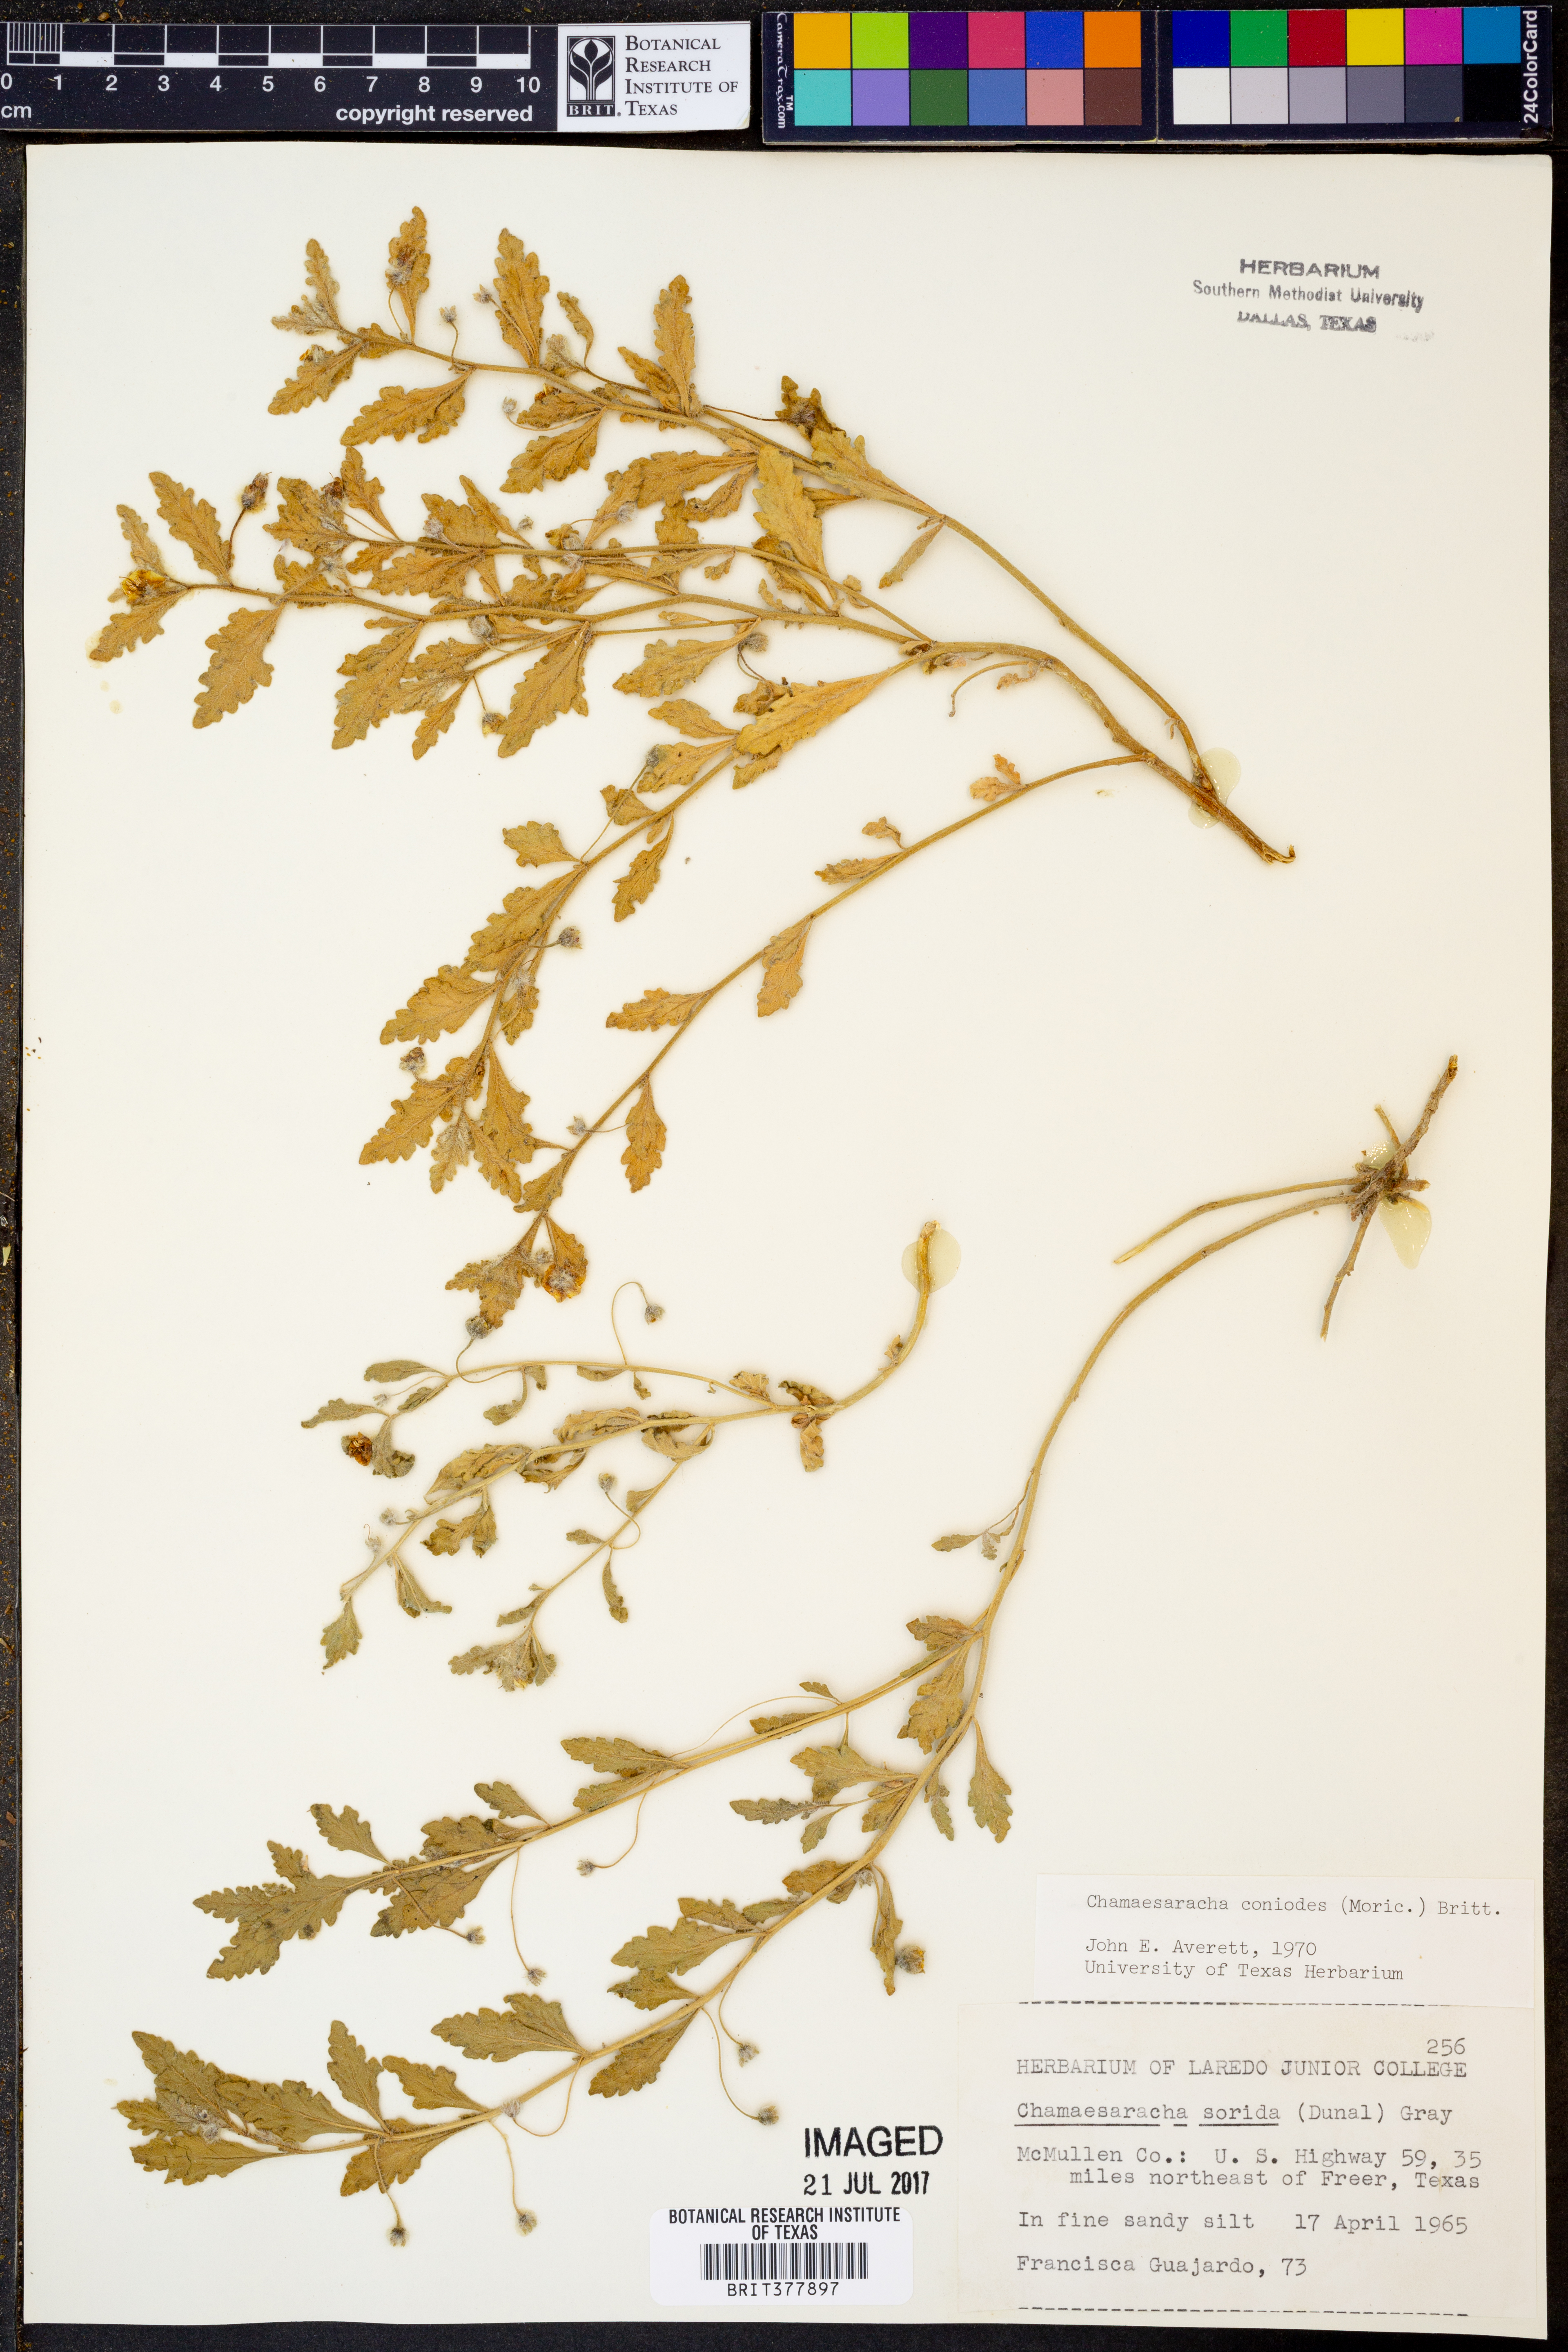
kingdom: Plantae
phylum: Tracheophyta
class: Magnoliopsida
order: Solanales
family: Solanaceae
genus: Chamaesaracha
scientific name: Chamaesaracha coniodes
